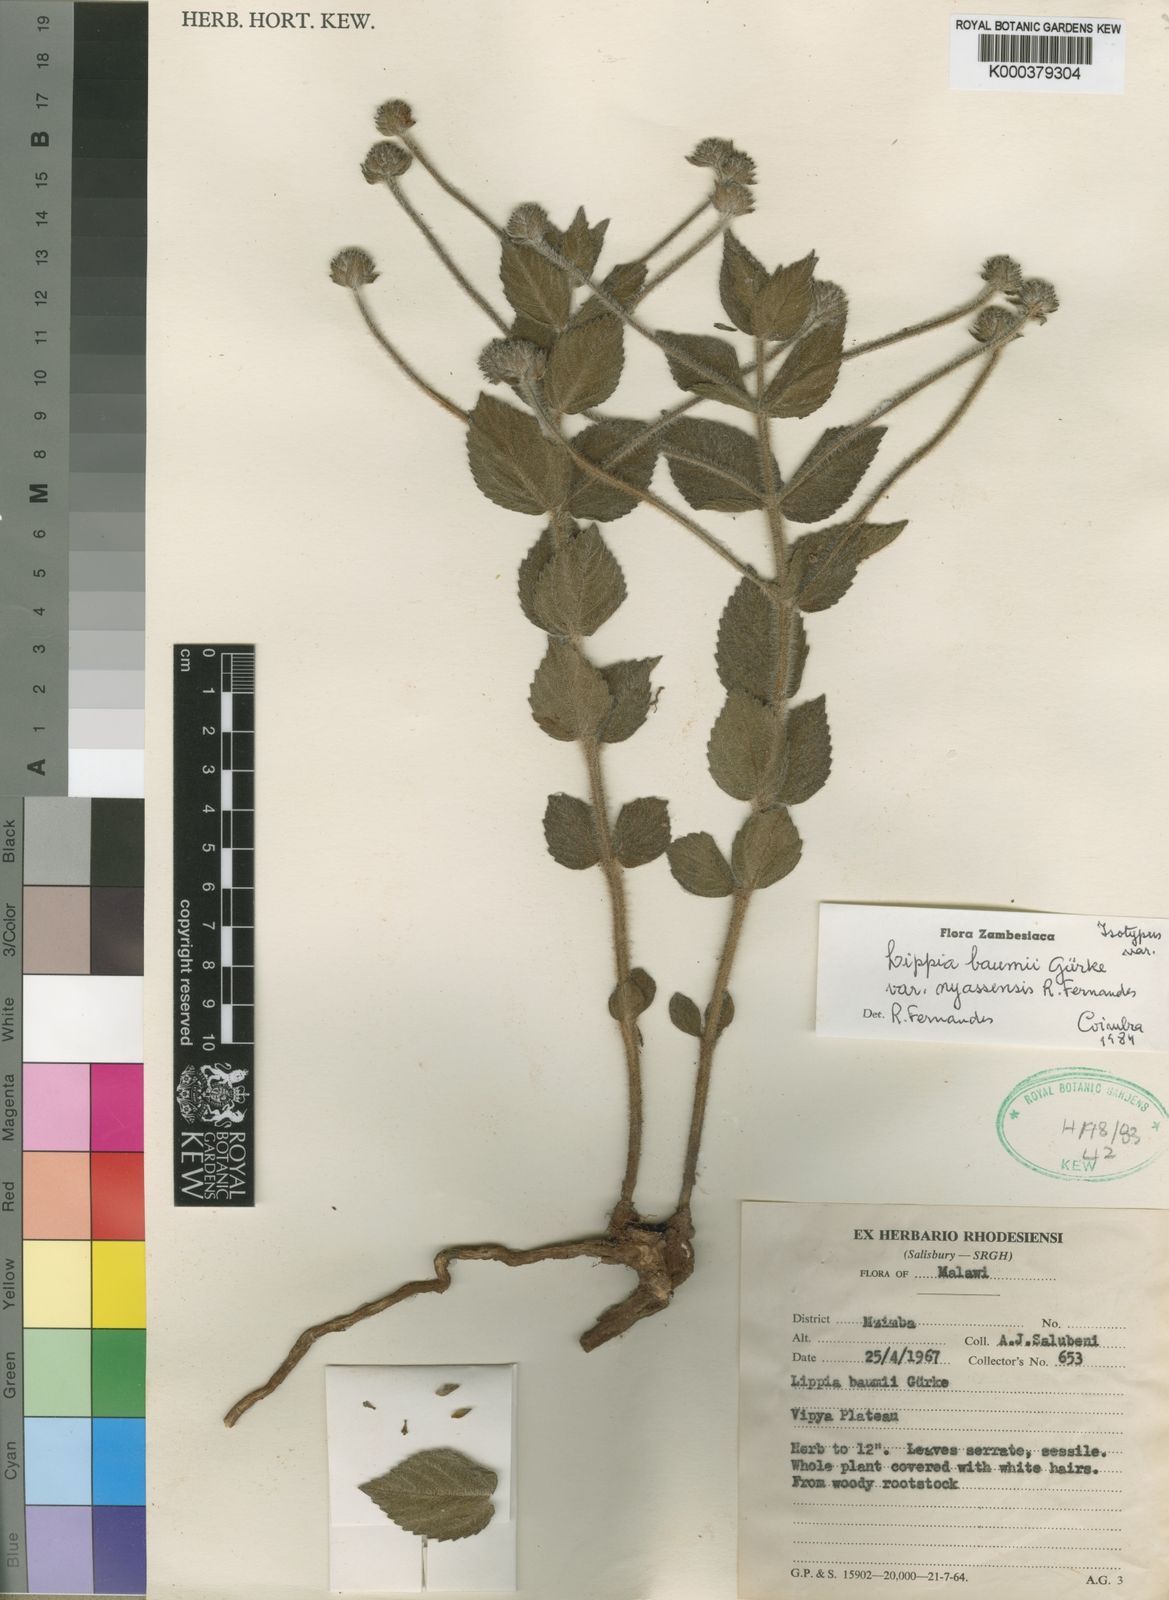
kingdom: Plantae
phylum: Tracheophyta
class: Magnoliopsida
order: Lamiales
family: Verbenaceae
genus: Lippia
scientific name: Lippia
